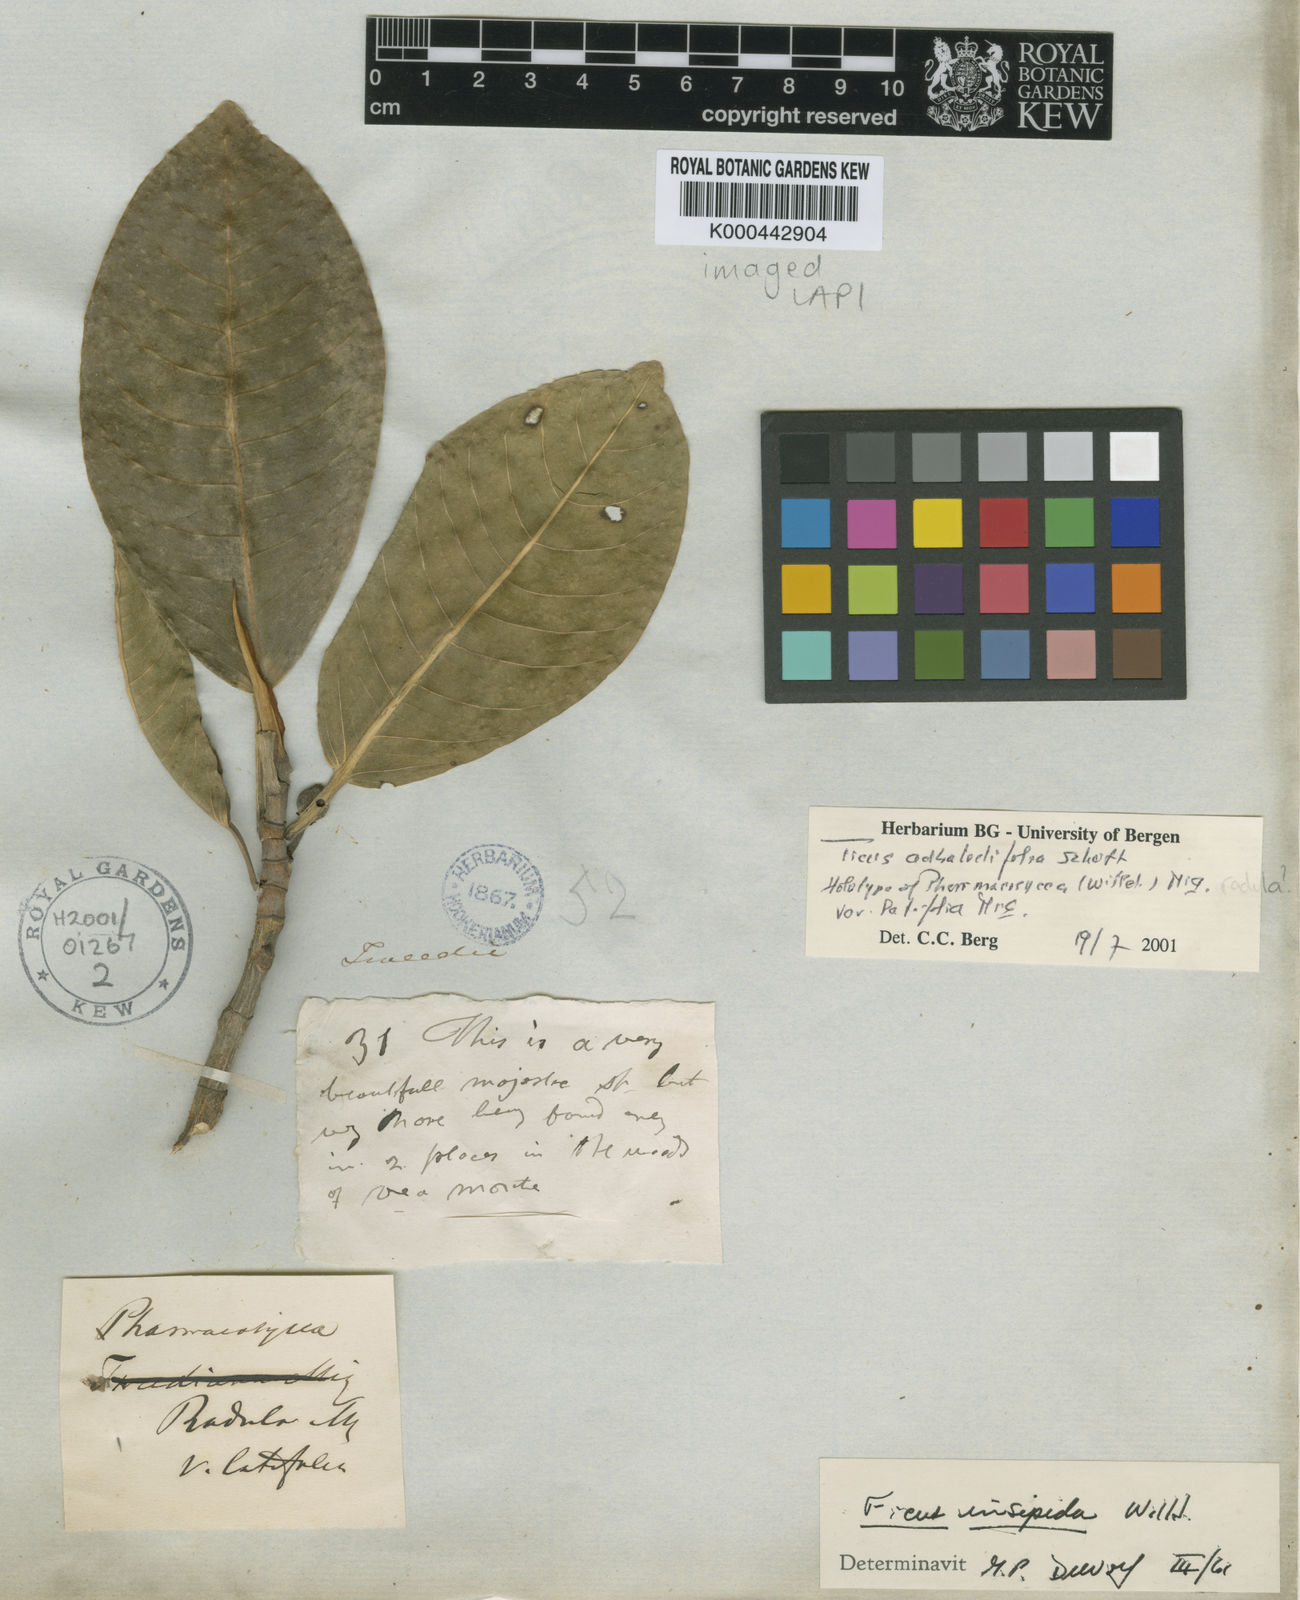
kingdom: Plantae
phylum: Tracheophyta
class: Magnoliopsida
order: Rosales
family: Moraceae
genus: Ficus
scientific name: Ficus
